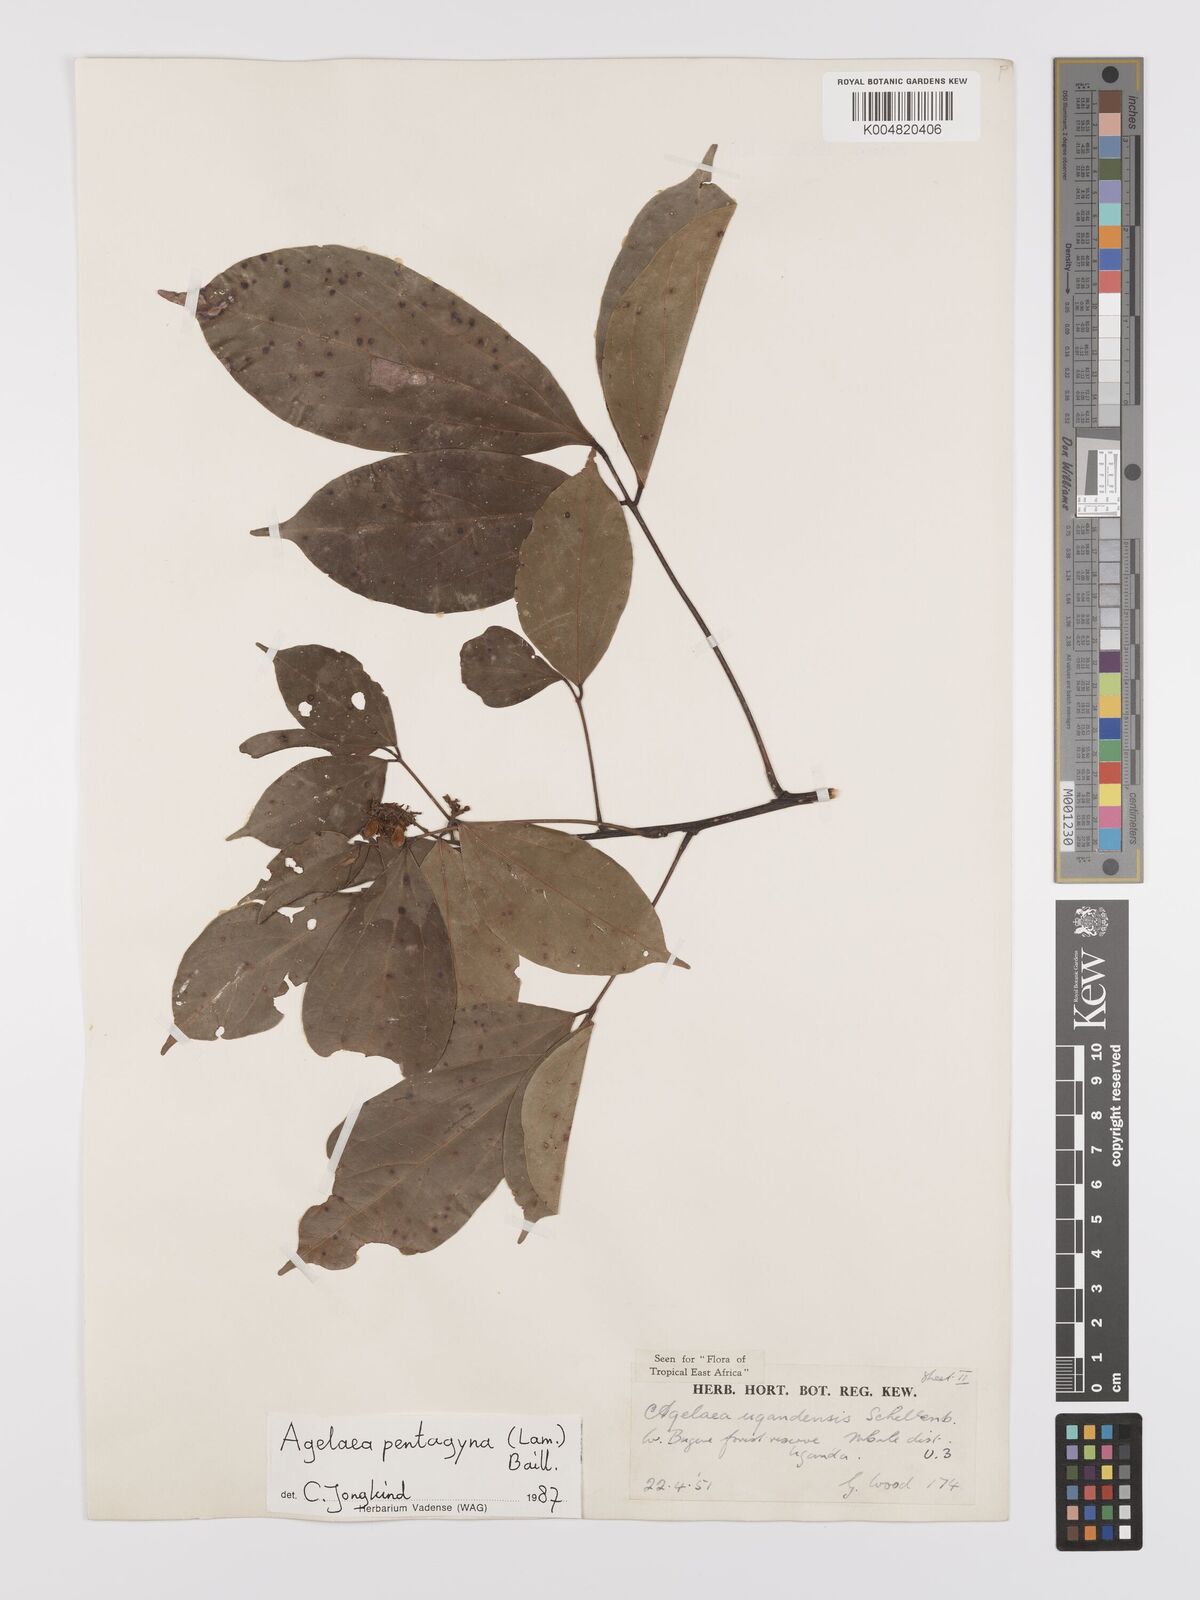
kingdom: Plantae
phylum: Tracheophyta
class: Magnoliopsida
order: Oxalidales
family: Connaraceae
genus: Agelaea
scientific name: Agelaea pentagyna
